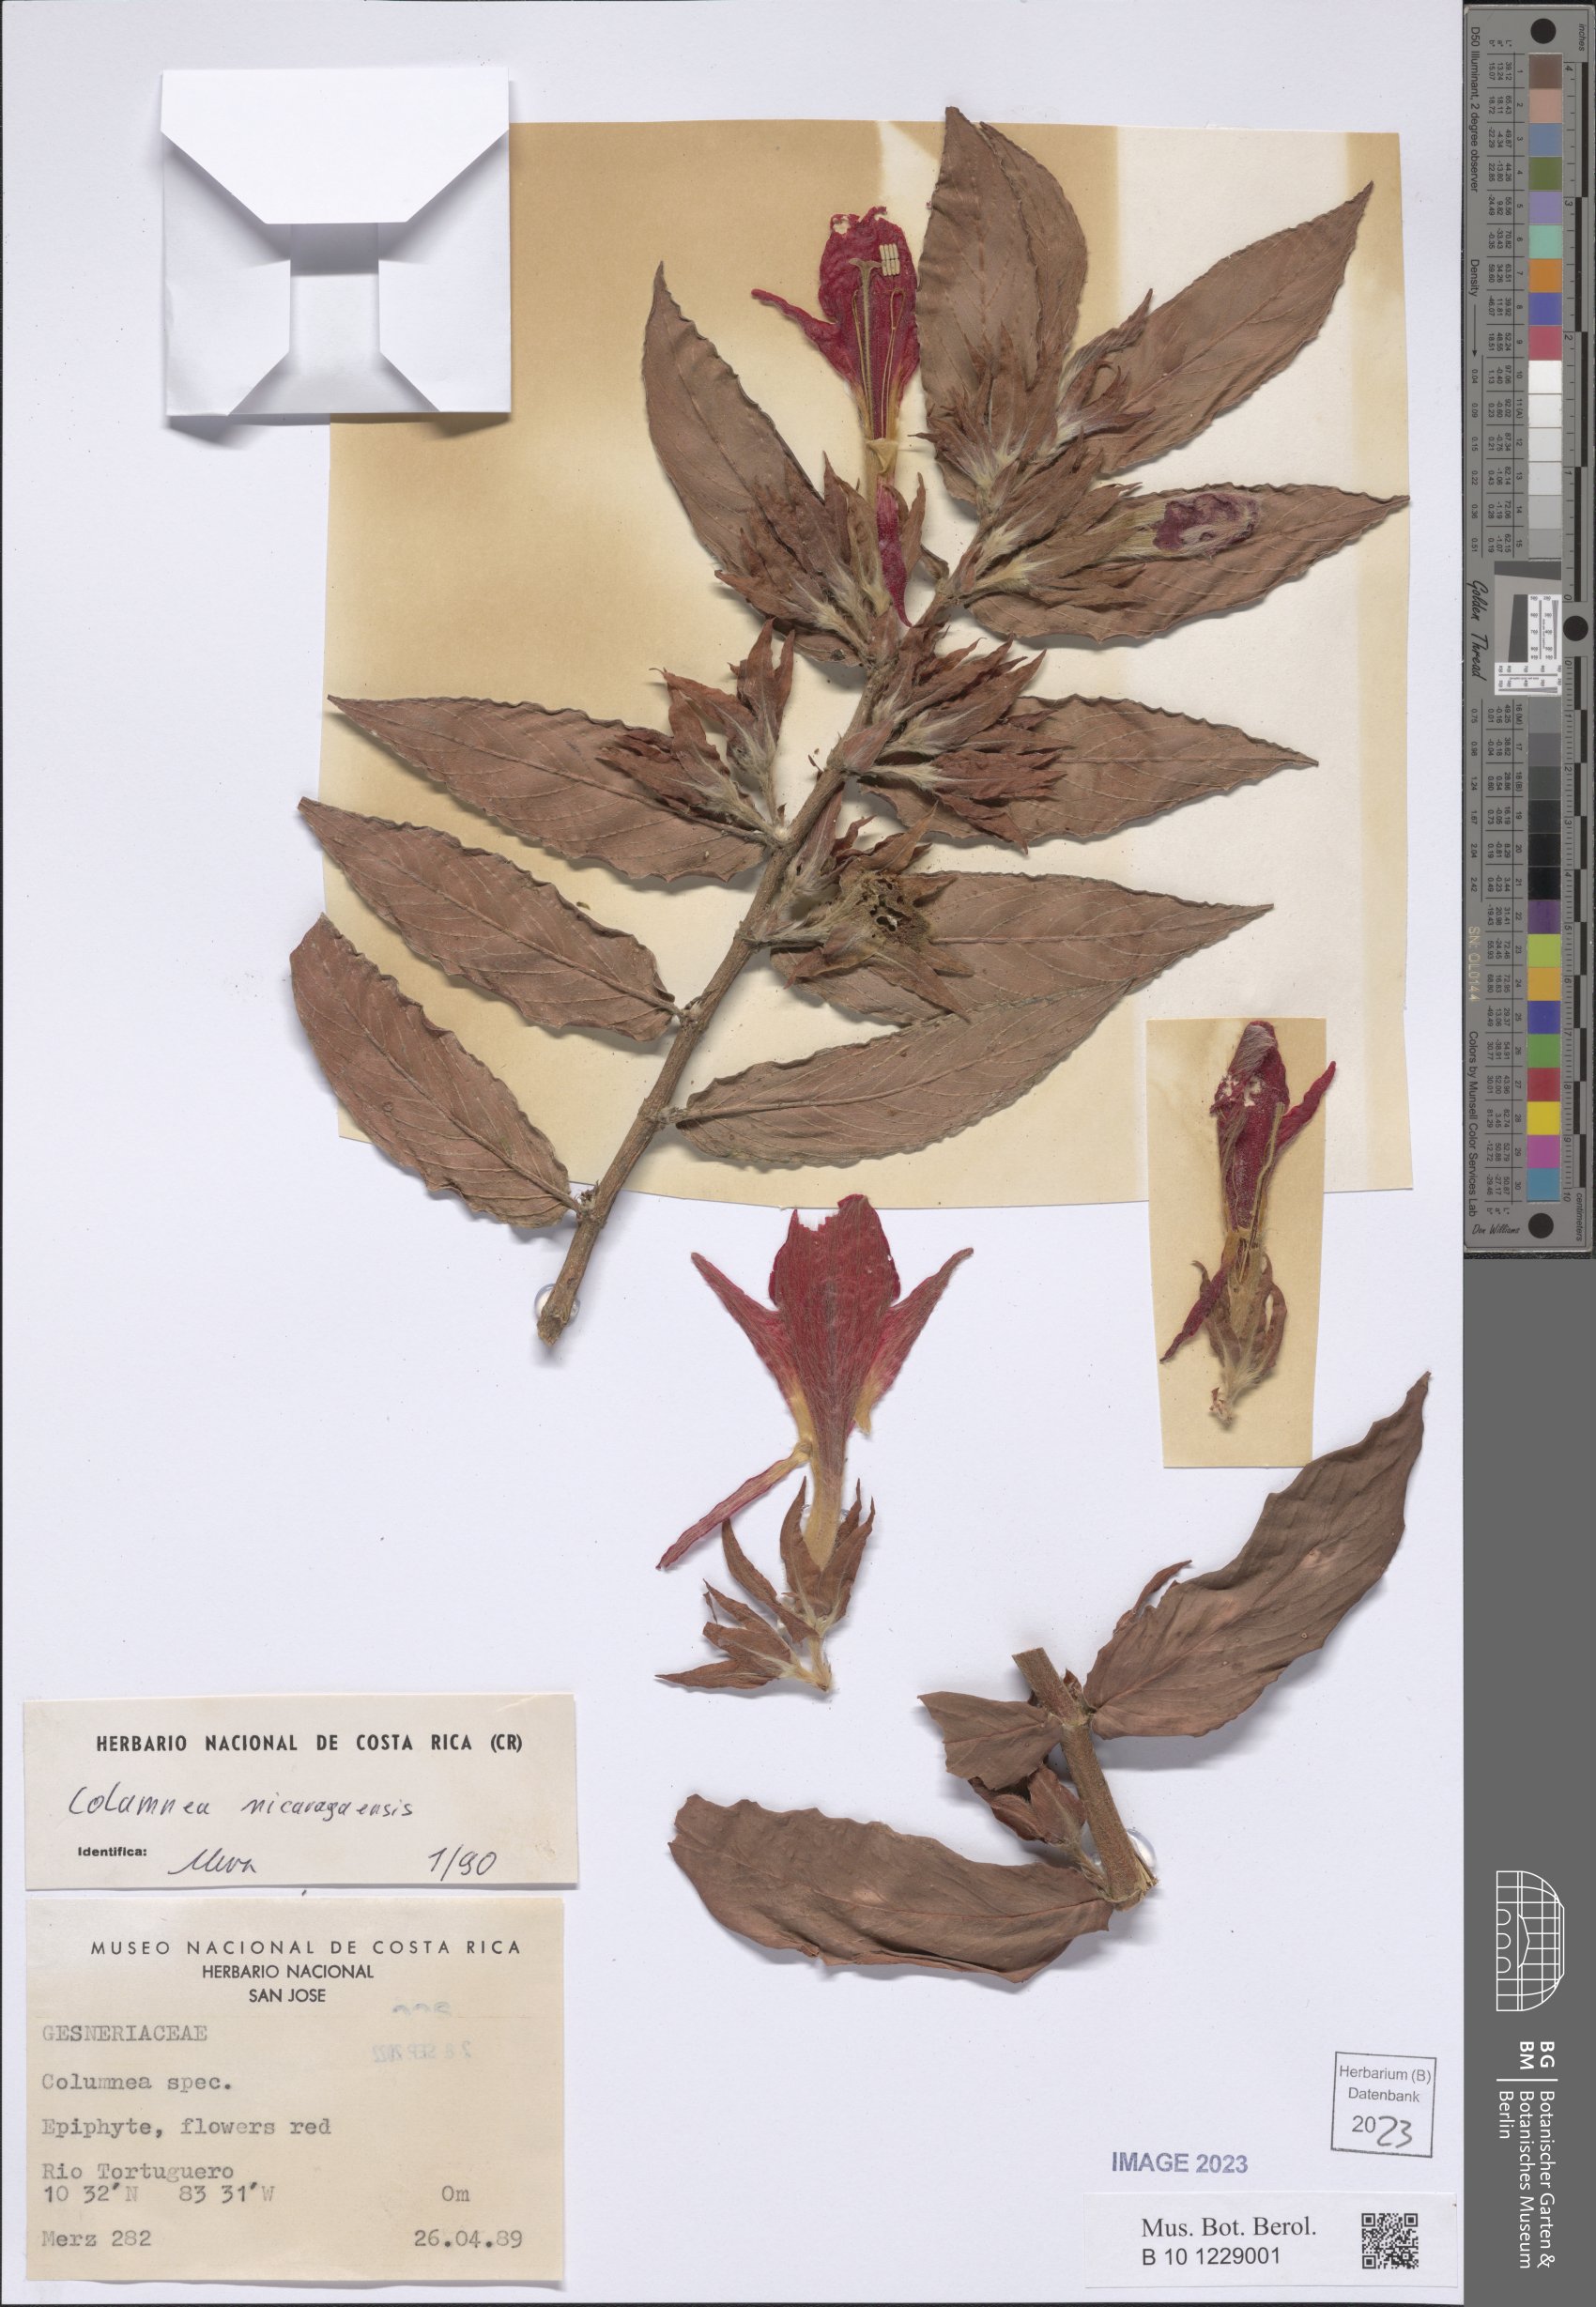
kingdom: Plantae
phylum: Tracheophyta
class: Magnoliopsida
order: Lamiales
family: Gesneriaceae
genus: Columnea
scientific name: Columnea nicaraguensis
